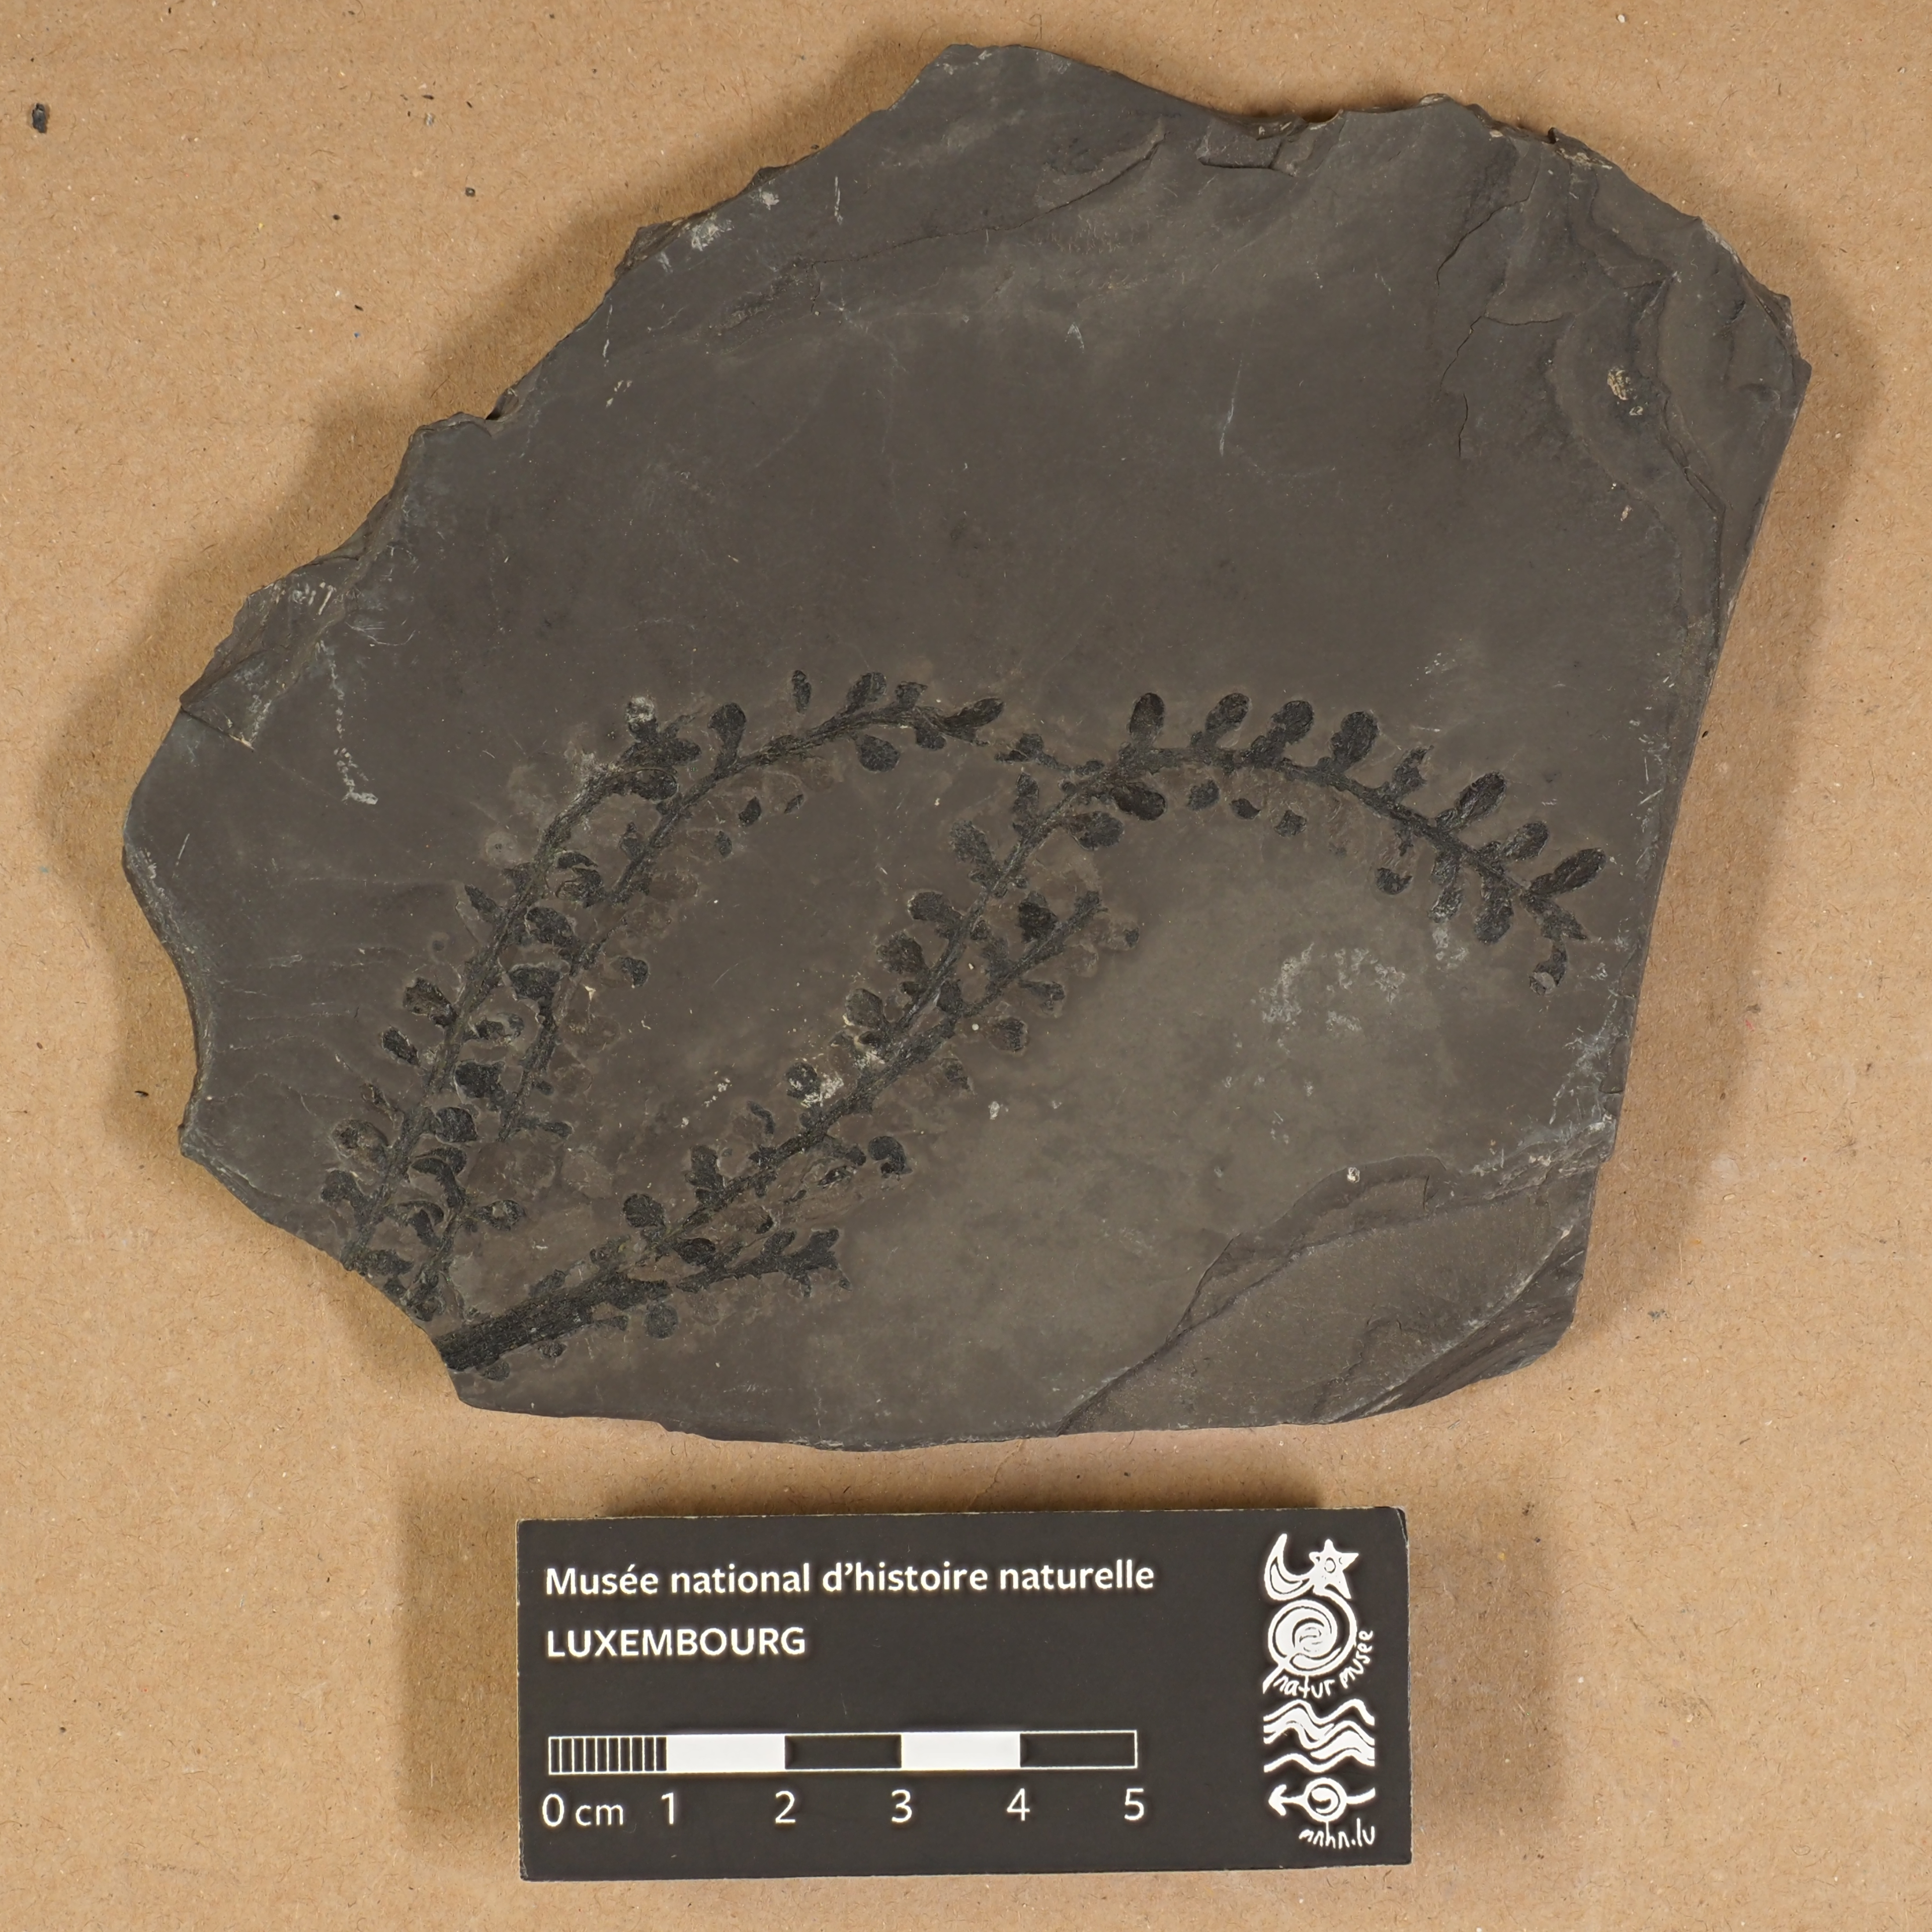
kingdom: Plantae
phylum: Tracheophyta
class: Polypodiopsida
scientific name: Polypodiopsida
